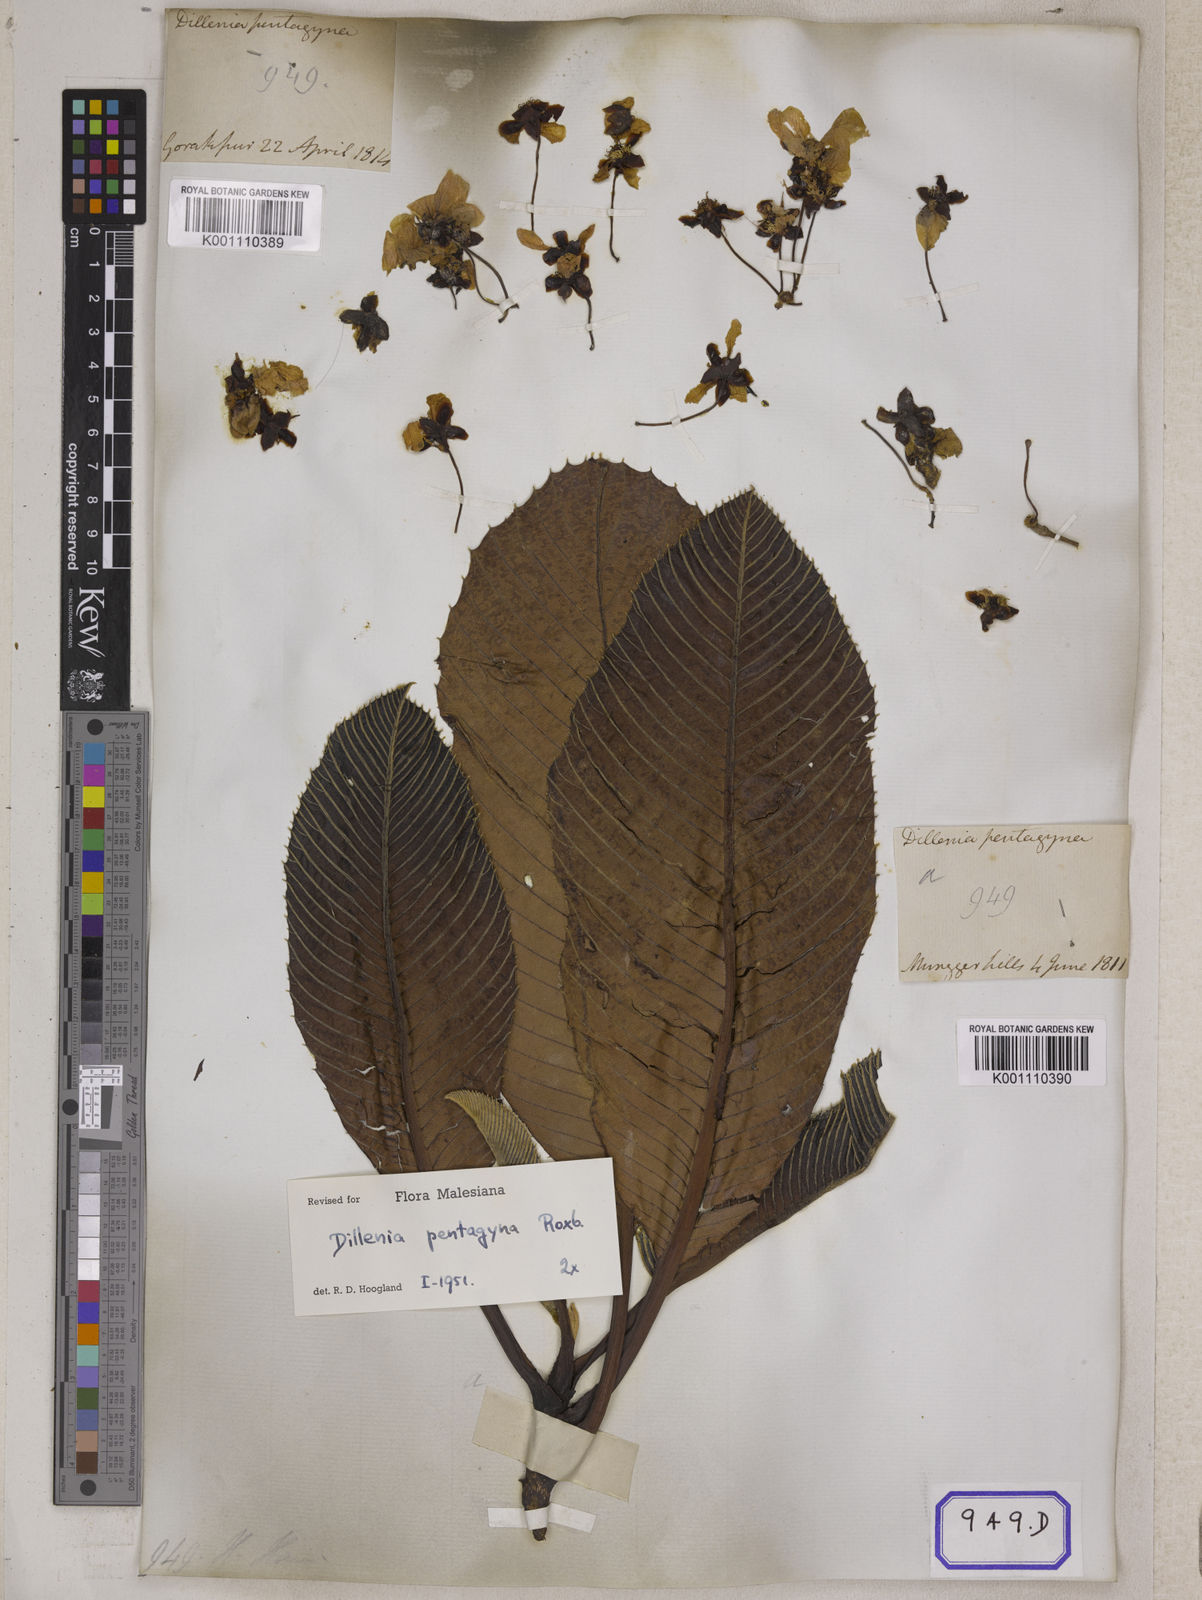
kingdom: Plantae
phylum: Tracheophyta
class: Magnoliopsida
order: Dilleniales
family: Dilleniaceae
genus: Dillenia
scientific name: Dillenia pentagyna
